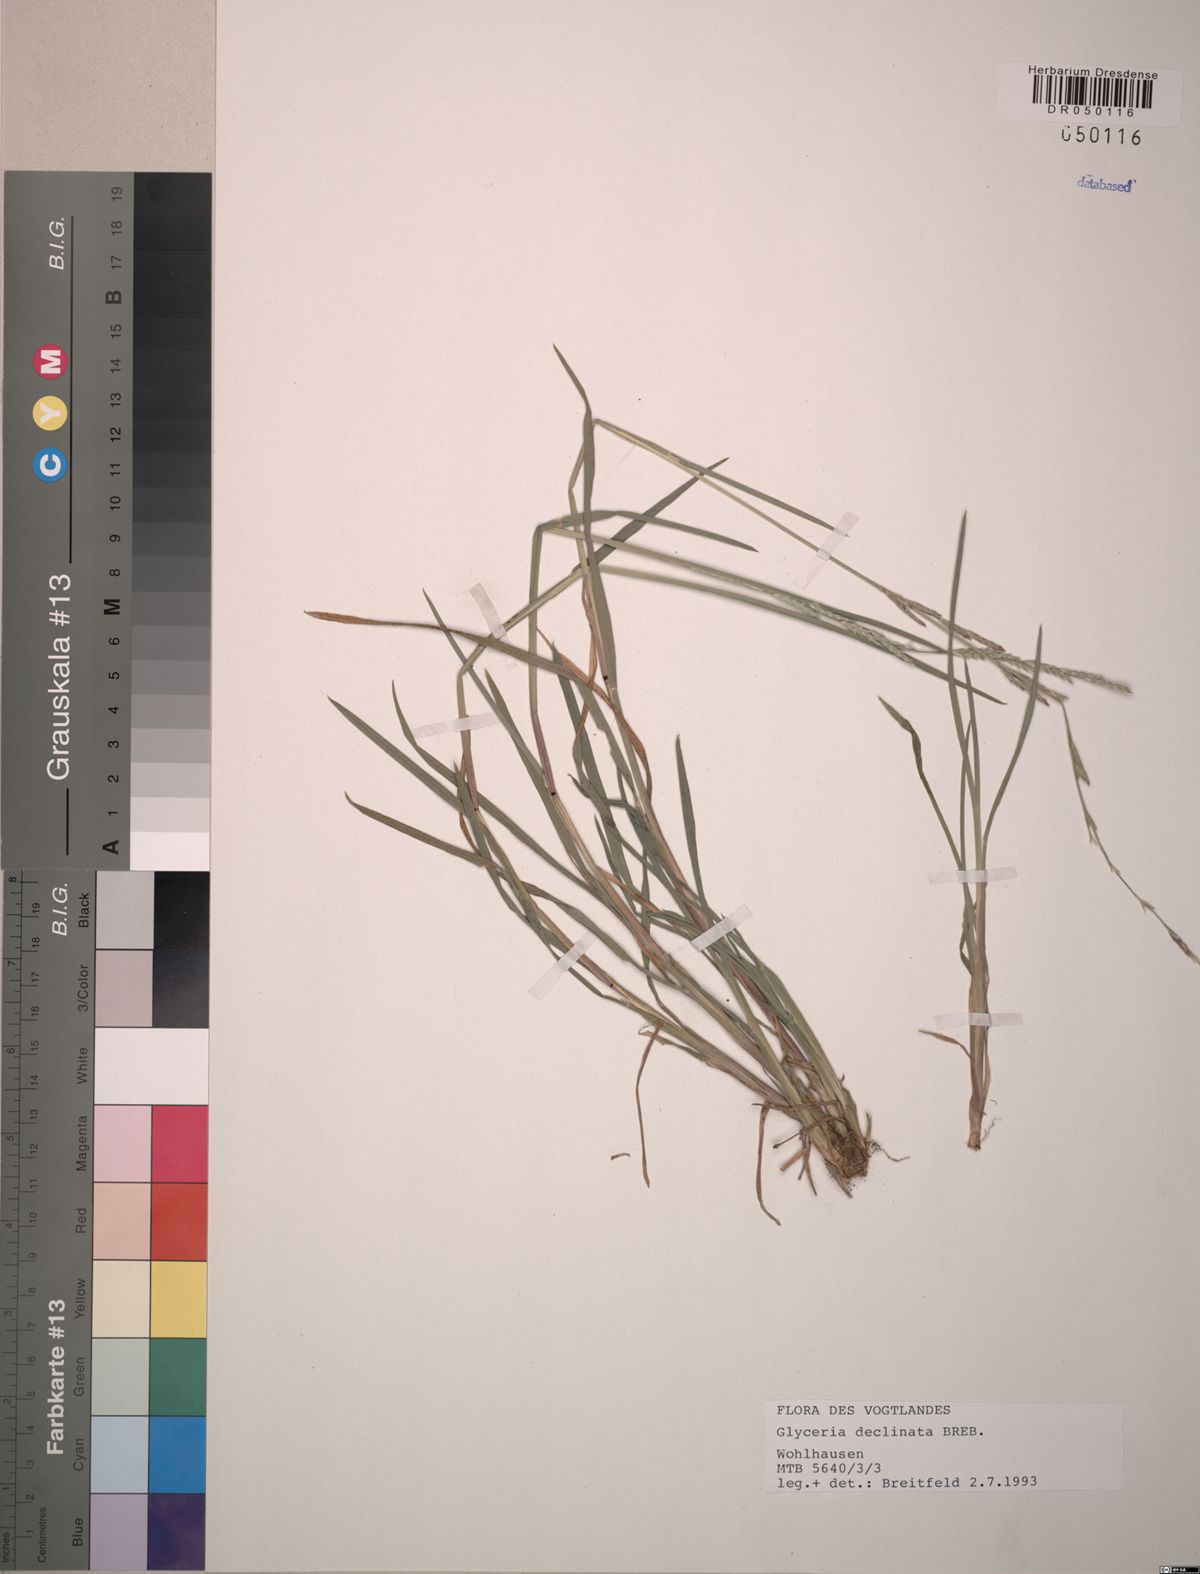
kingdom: Plantae
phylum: Tracheophyta
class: Liliopsida
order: Poales
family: Poaceae
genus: Glyceria
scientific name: Glyceria declinata
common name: Small sweet-grass
